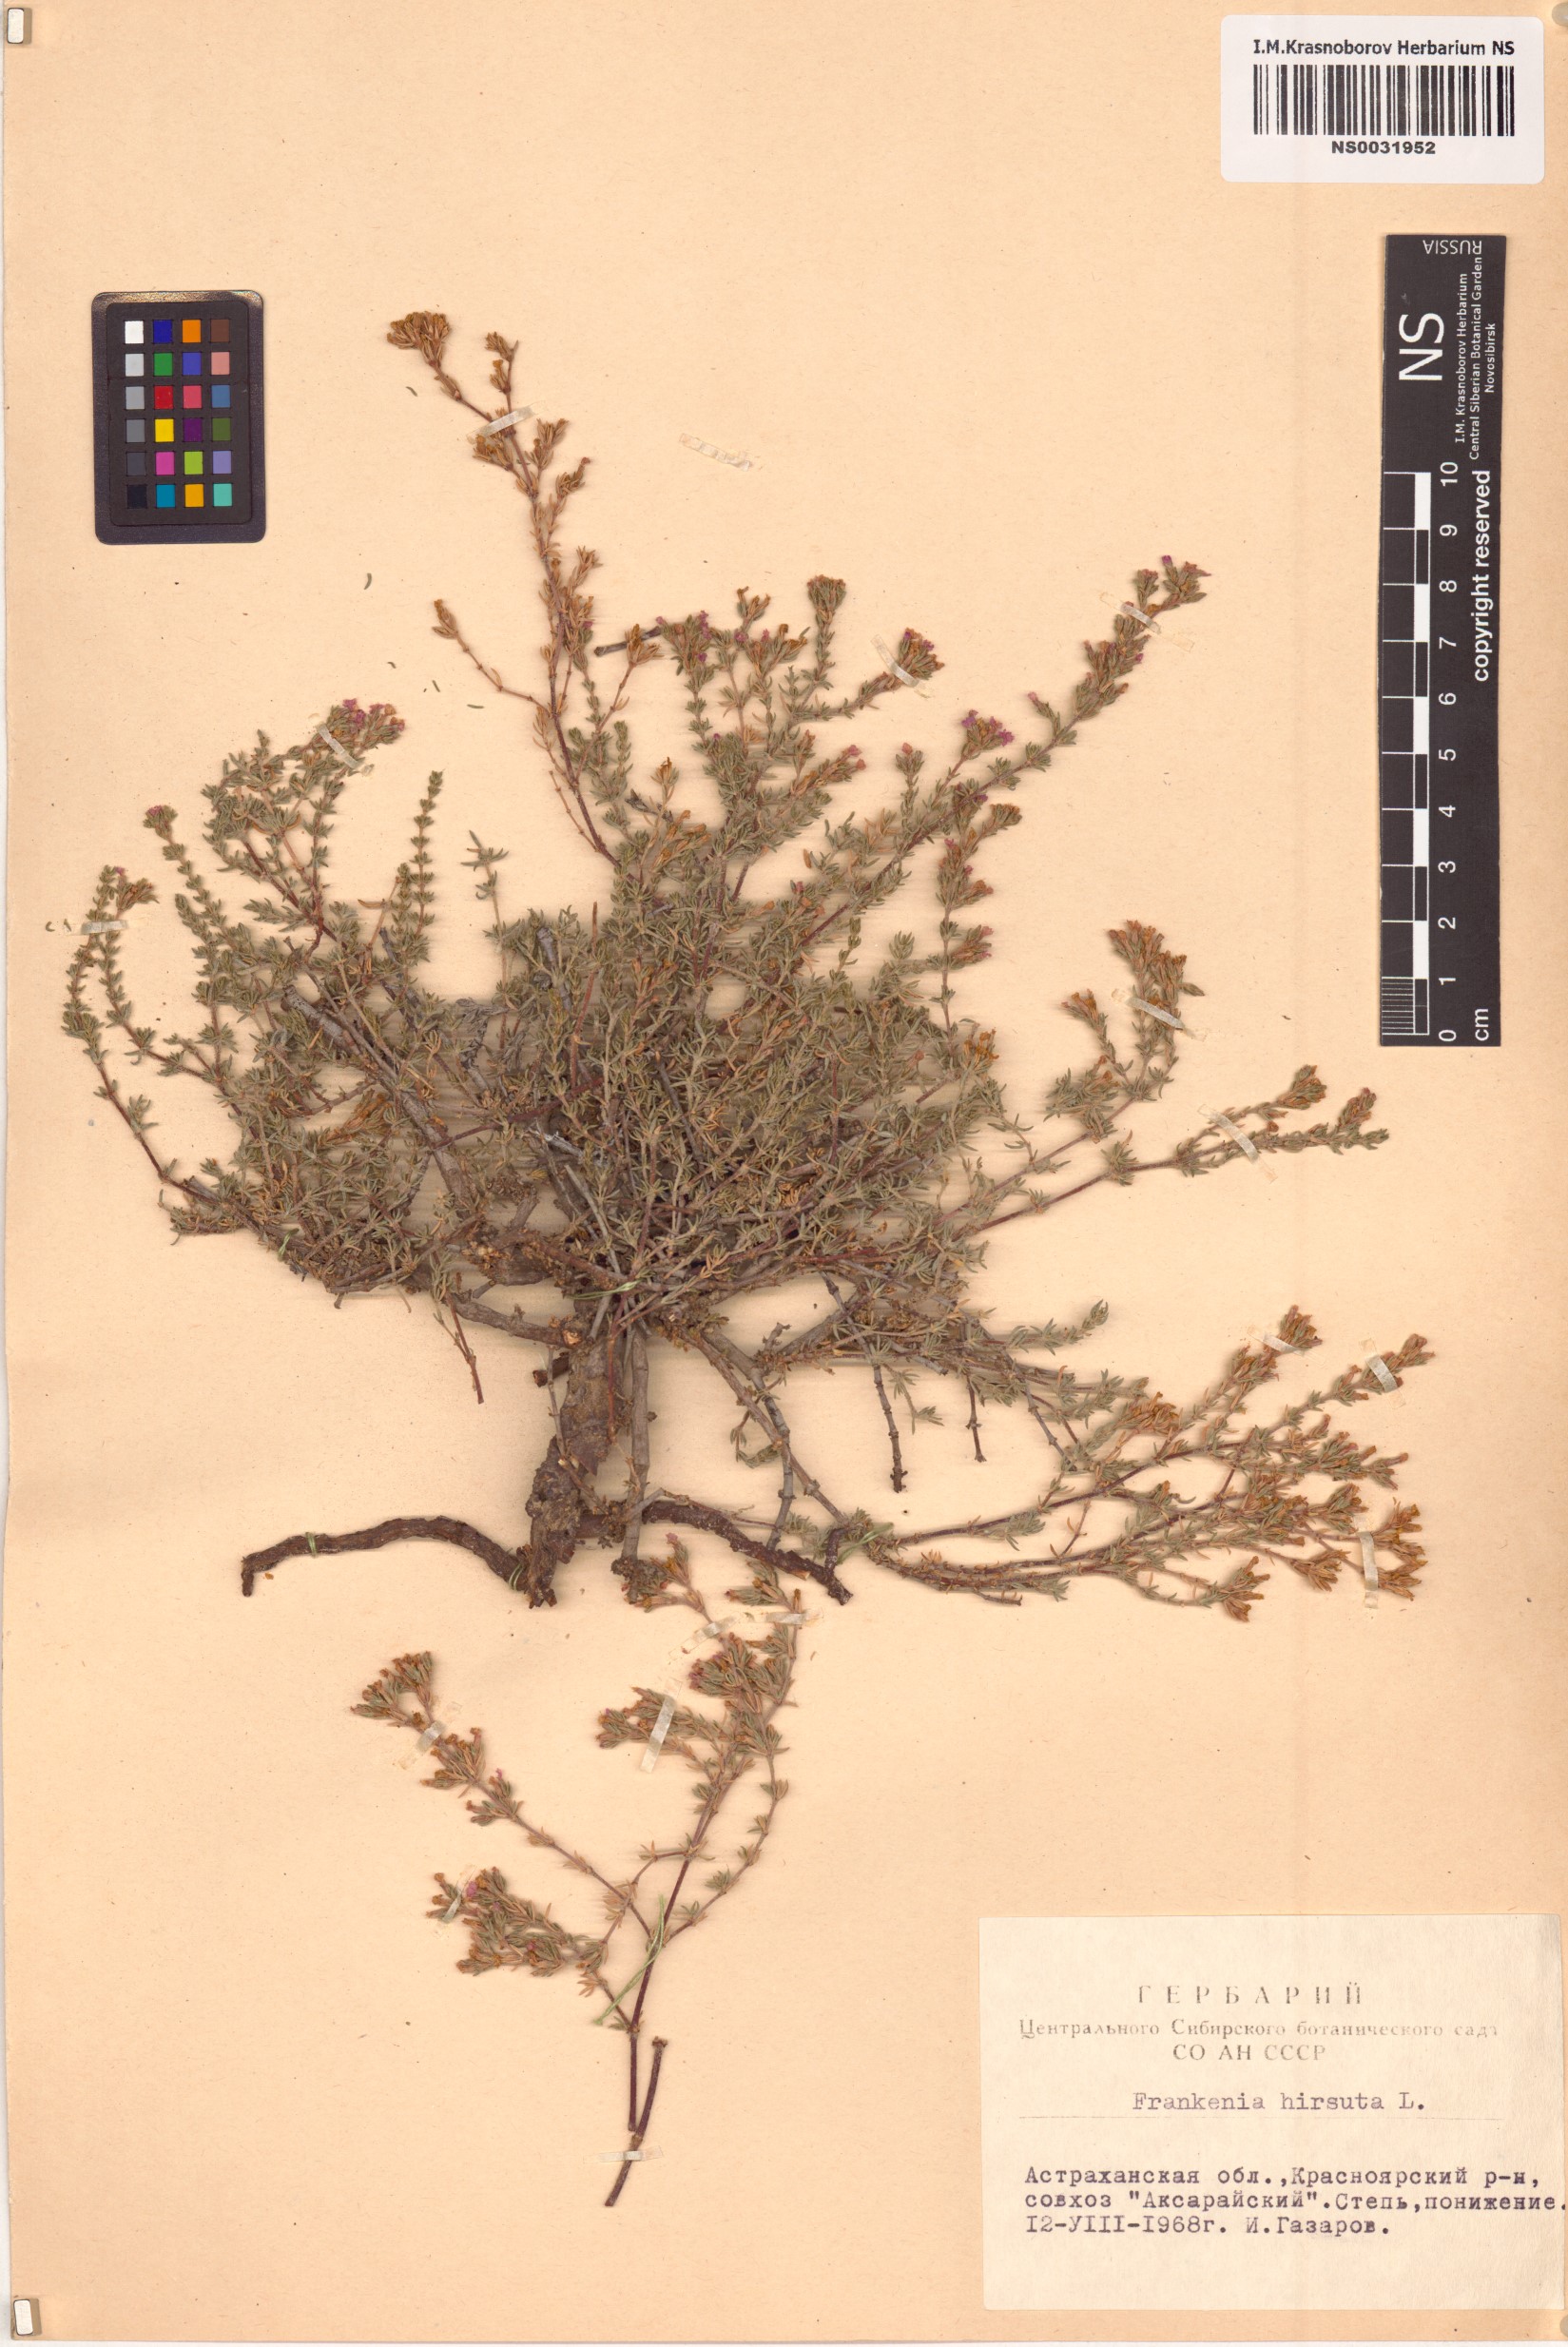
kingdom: Plantae
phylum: Tracheophyta
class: Magnoliopsida
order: Caryophyllales
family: Frankeniaceae
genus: Frankenia
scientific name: Frankenia hirsuta
